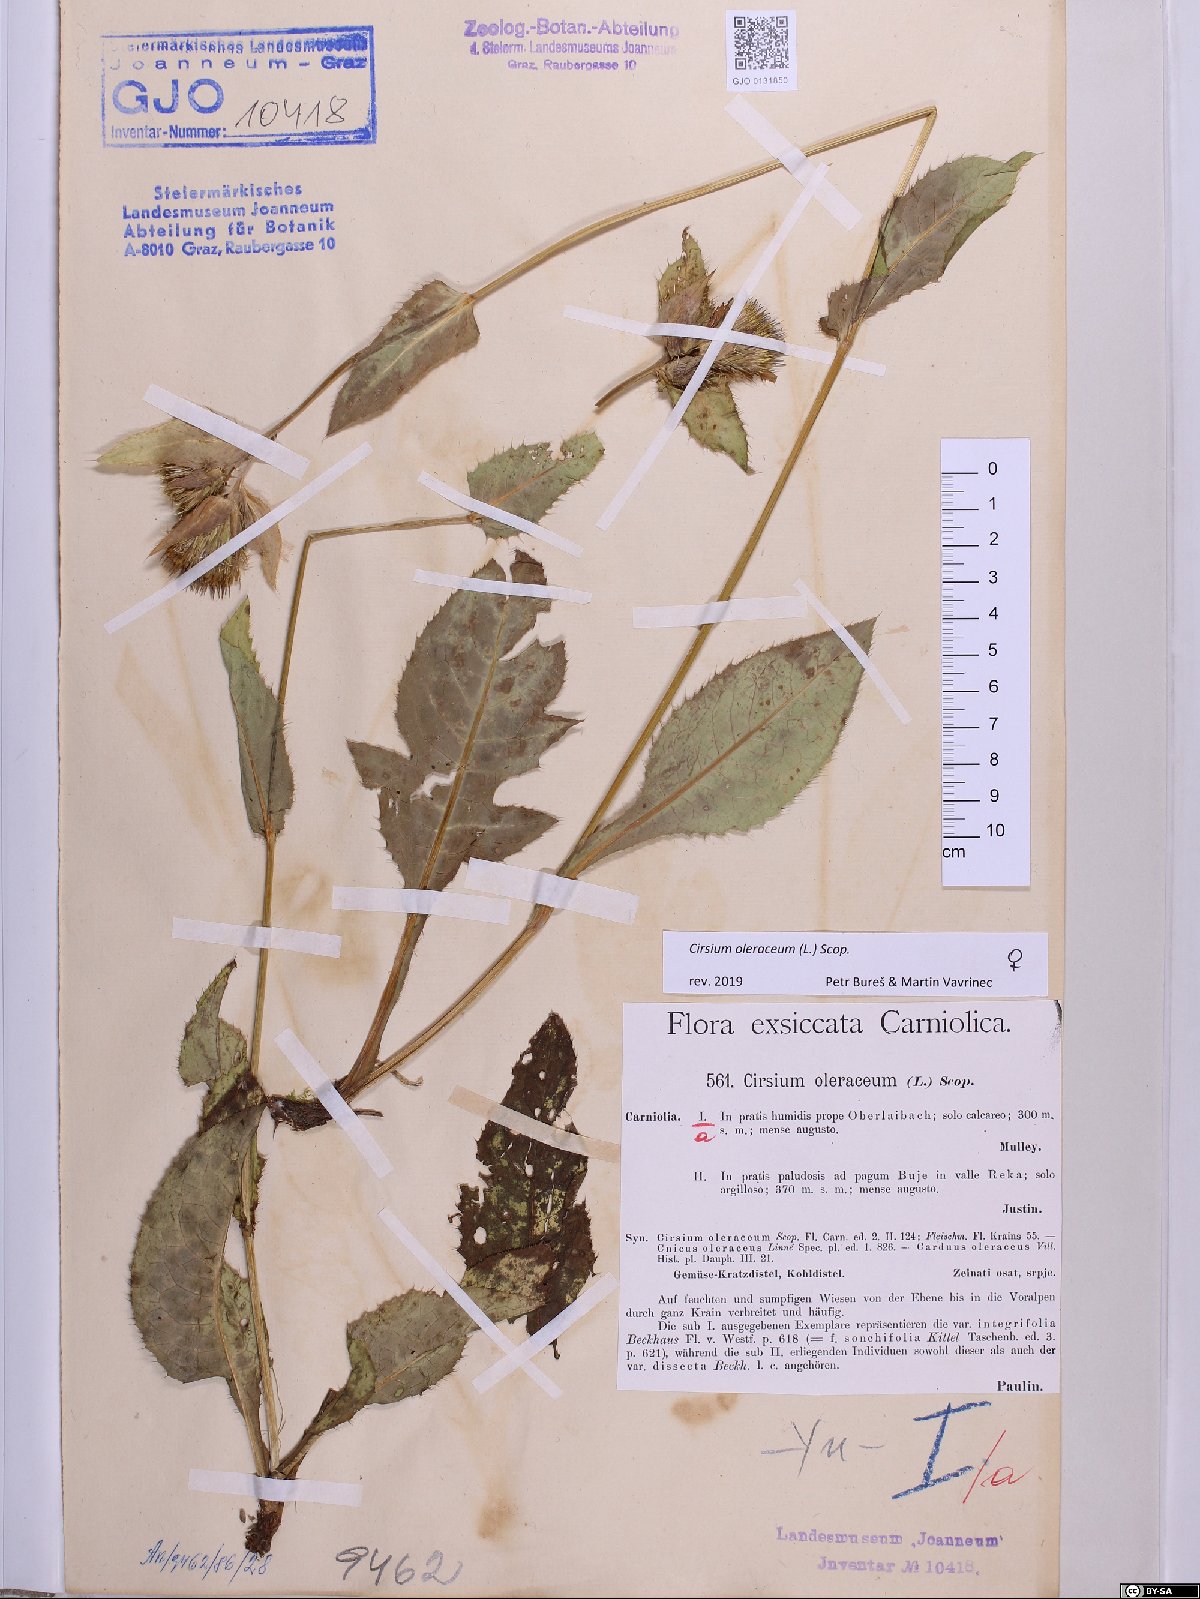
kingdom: Plantae
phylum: Tracheophyta
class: Magnoliopsida
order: Asterales
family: Asteraceae
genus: Cirsium
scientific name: Cirsium oleraceum
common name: Cabbage thistle
